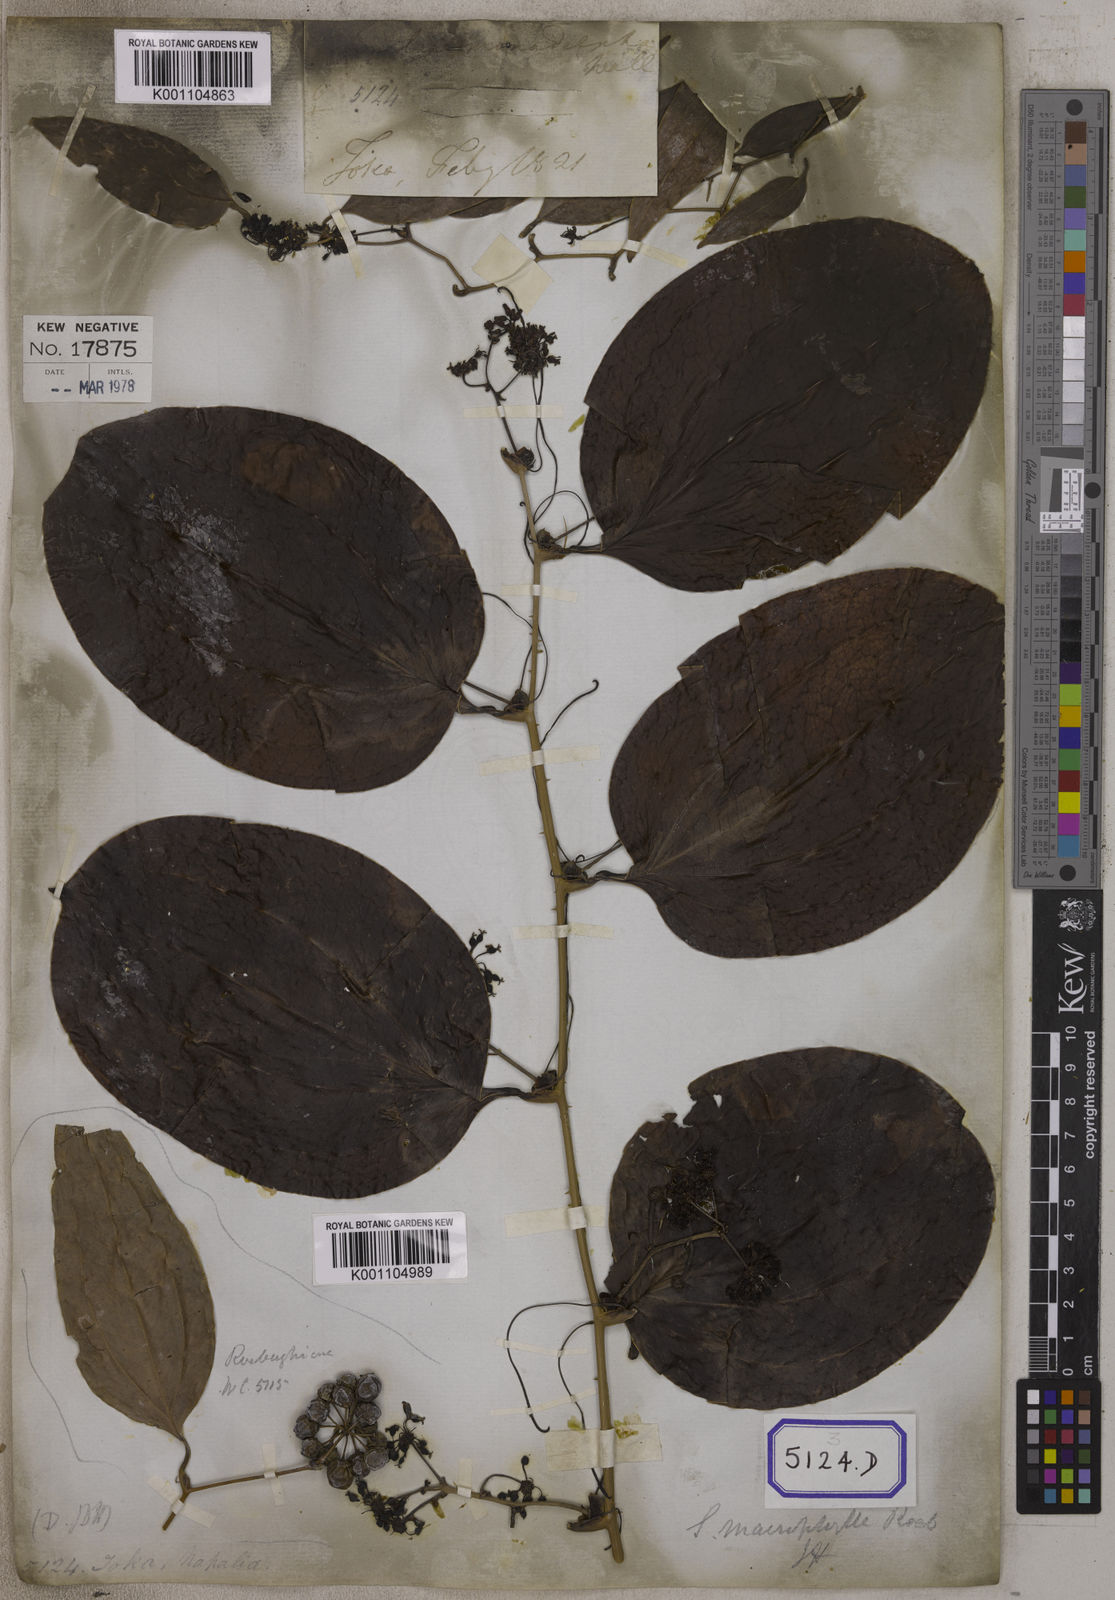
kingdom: Plantae
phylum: Tracheophyta
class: Liliopsida
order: Liliales
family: Smilacaceae
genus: Smilax
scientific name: Smilax prolifera
